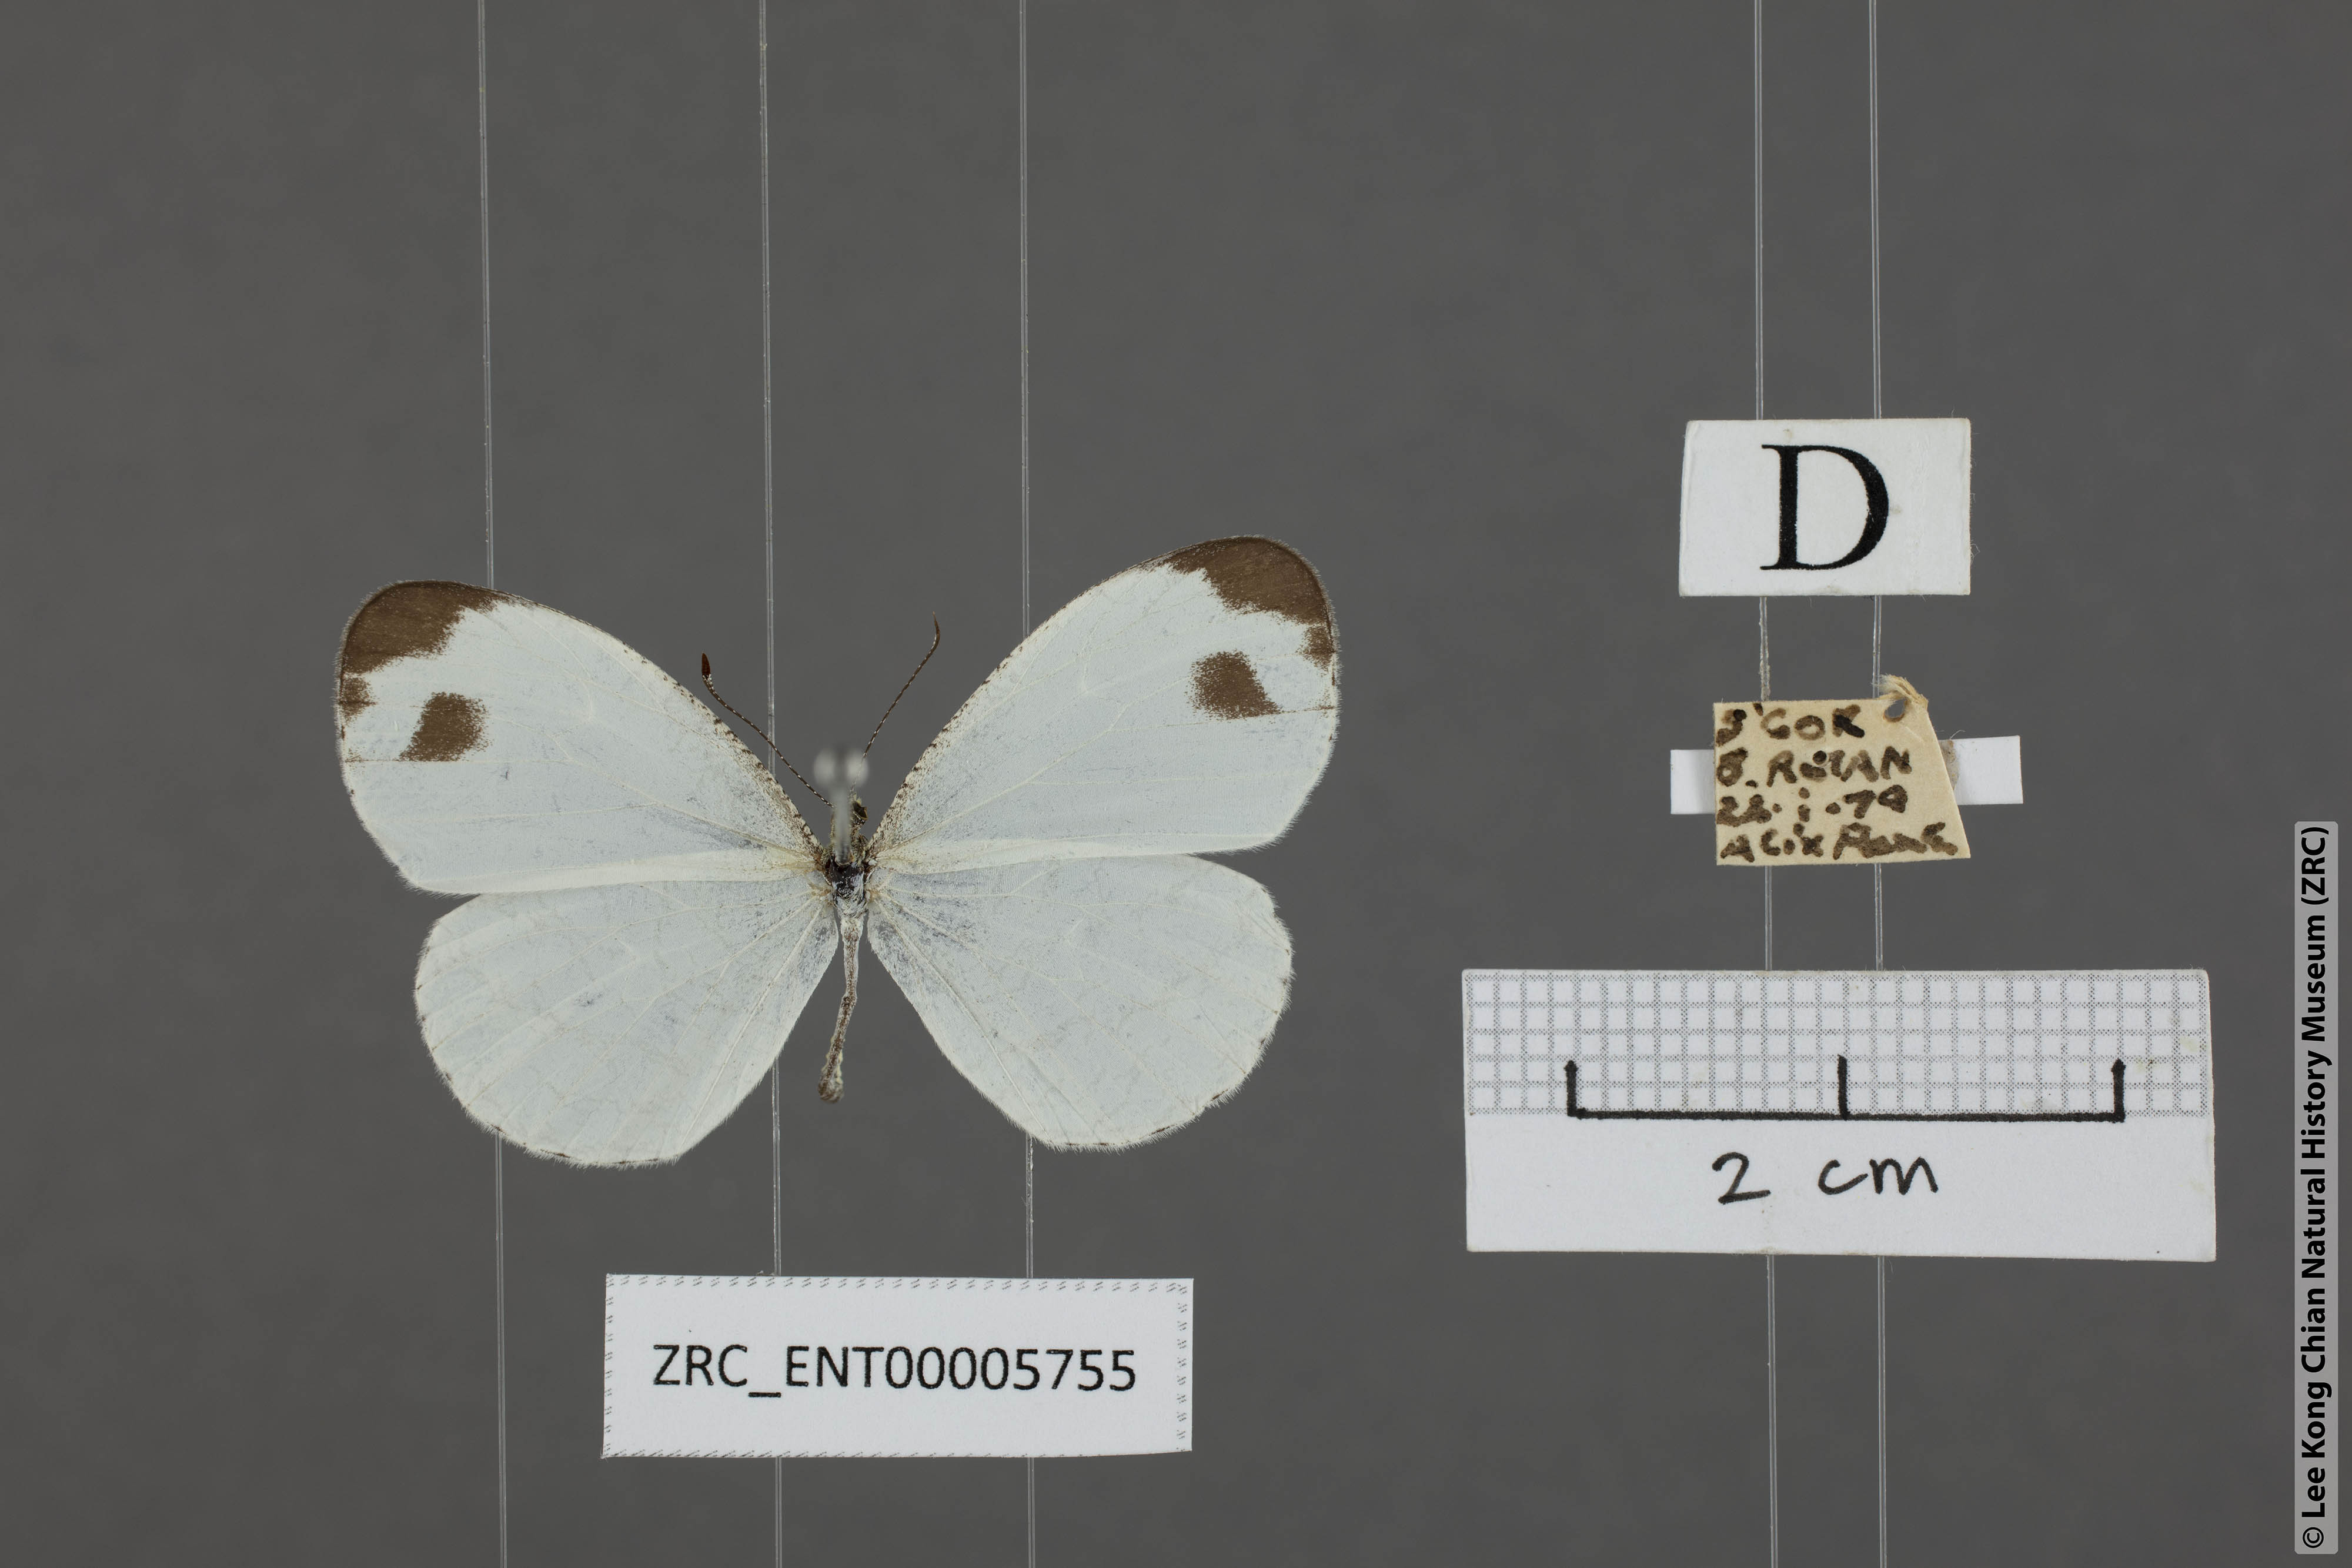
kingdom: Animalia
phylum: Arthropoda
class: Insecta
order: Lepidoptera
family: Pieridae
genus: Leptosia
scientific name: Leptosia nina
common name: Psyche
